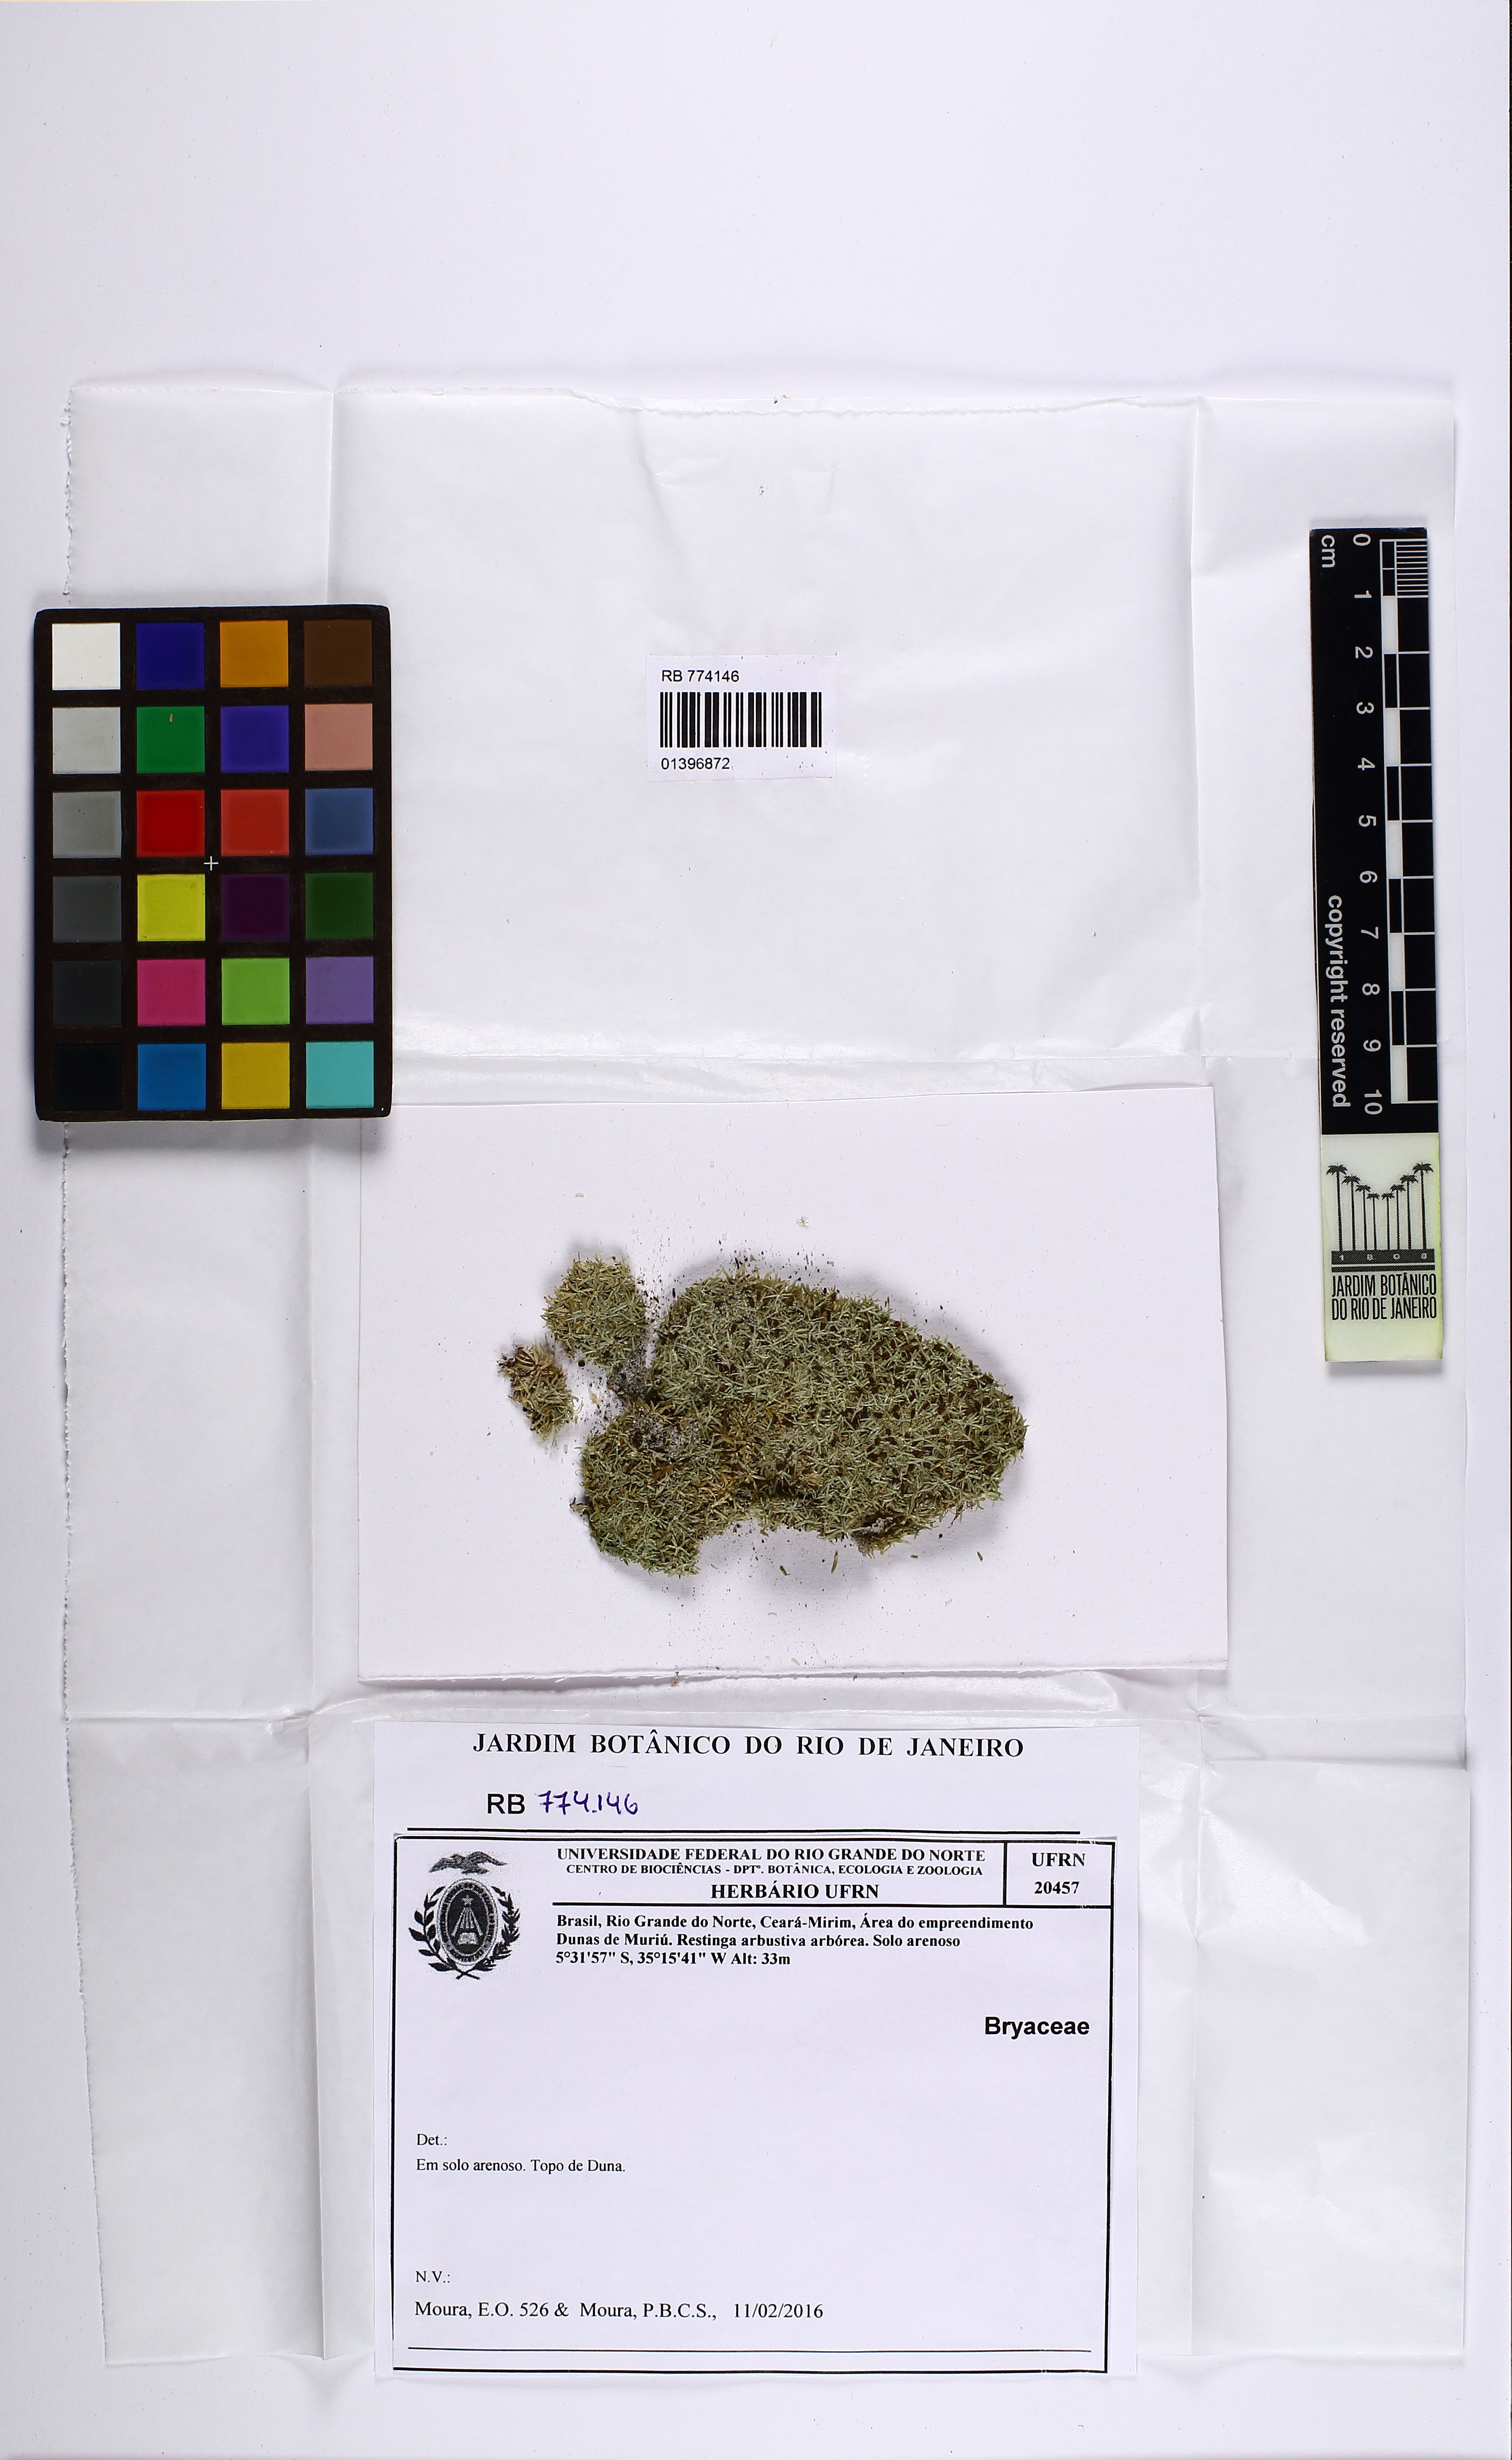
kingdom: Plantae
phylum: Bryophyta
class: Bryopsida
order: Bryales
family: Bryaceae
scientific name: Bryaceae
